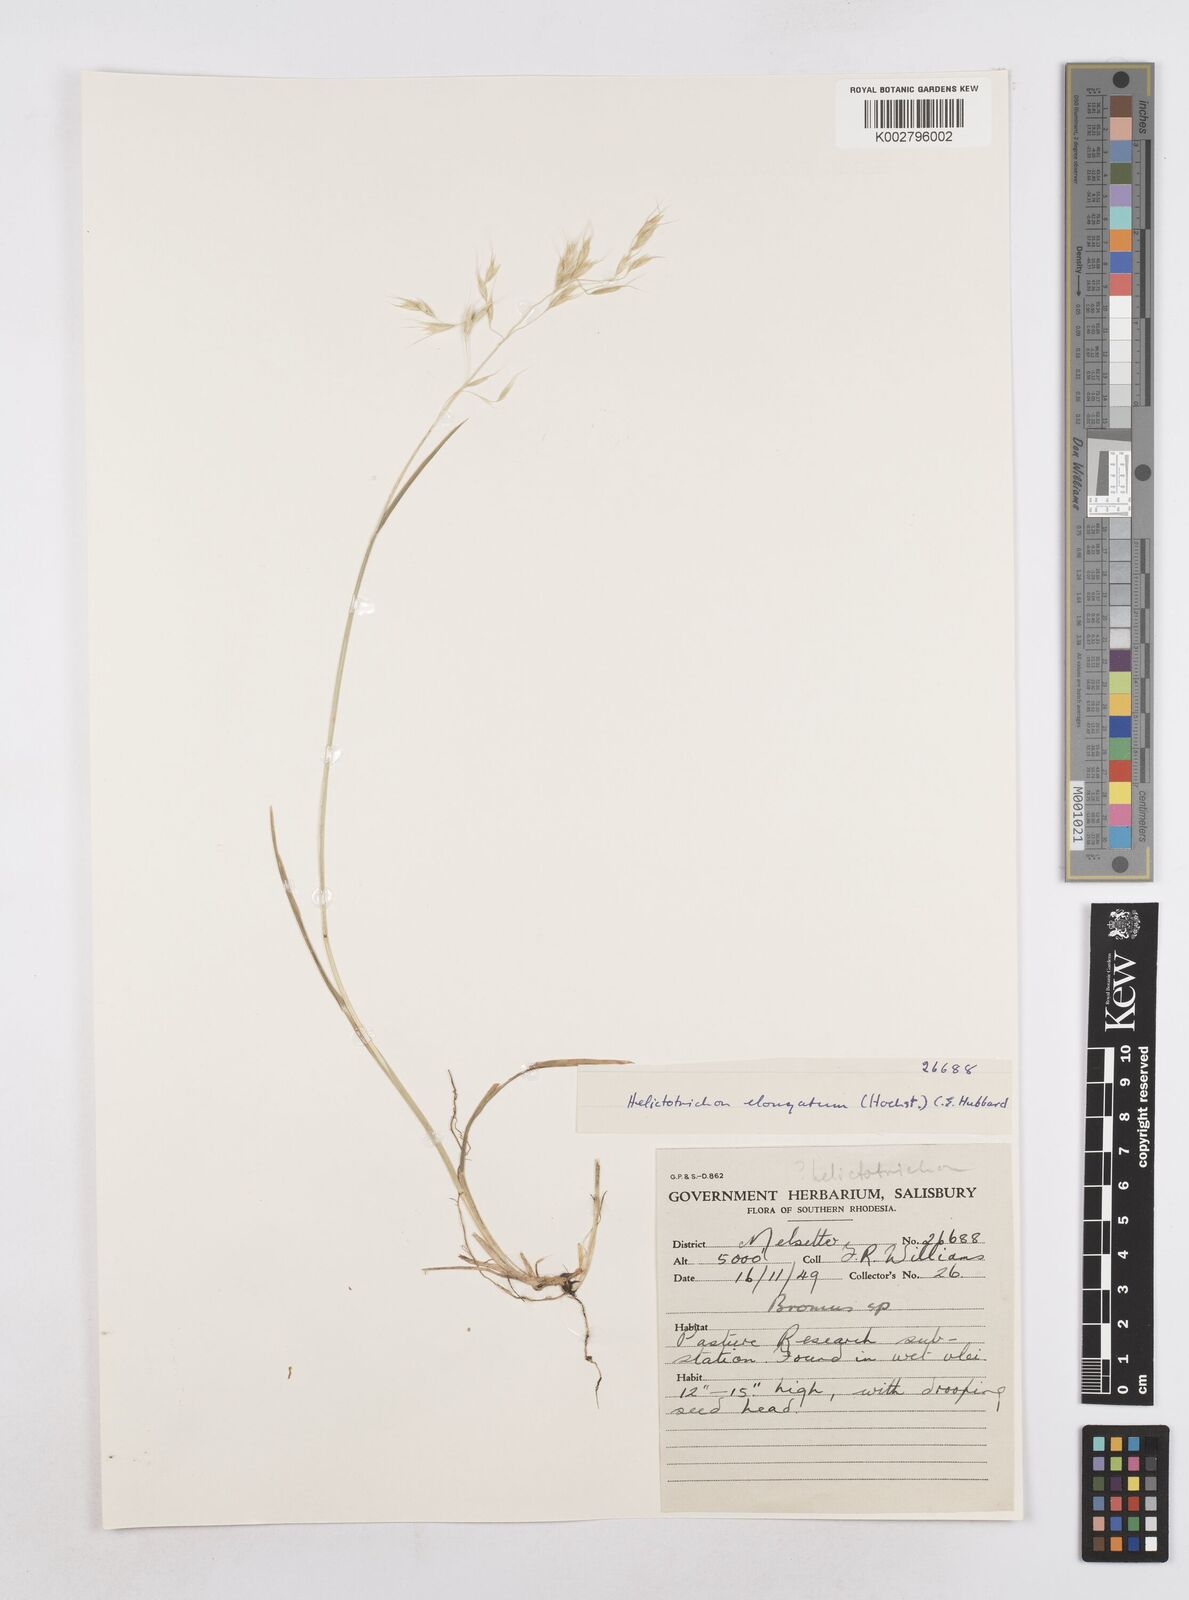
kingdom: Plantae
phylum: Tracheophyta
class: Liliopsida
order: Poales
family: Poaceae
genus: Trisetopsis
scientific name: Trisetopsis elongata
